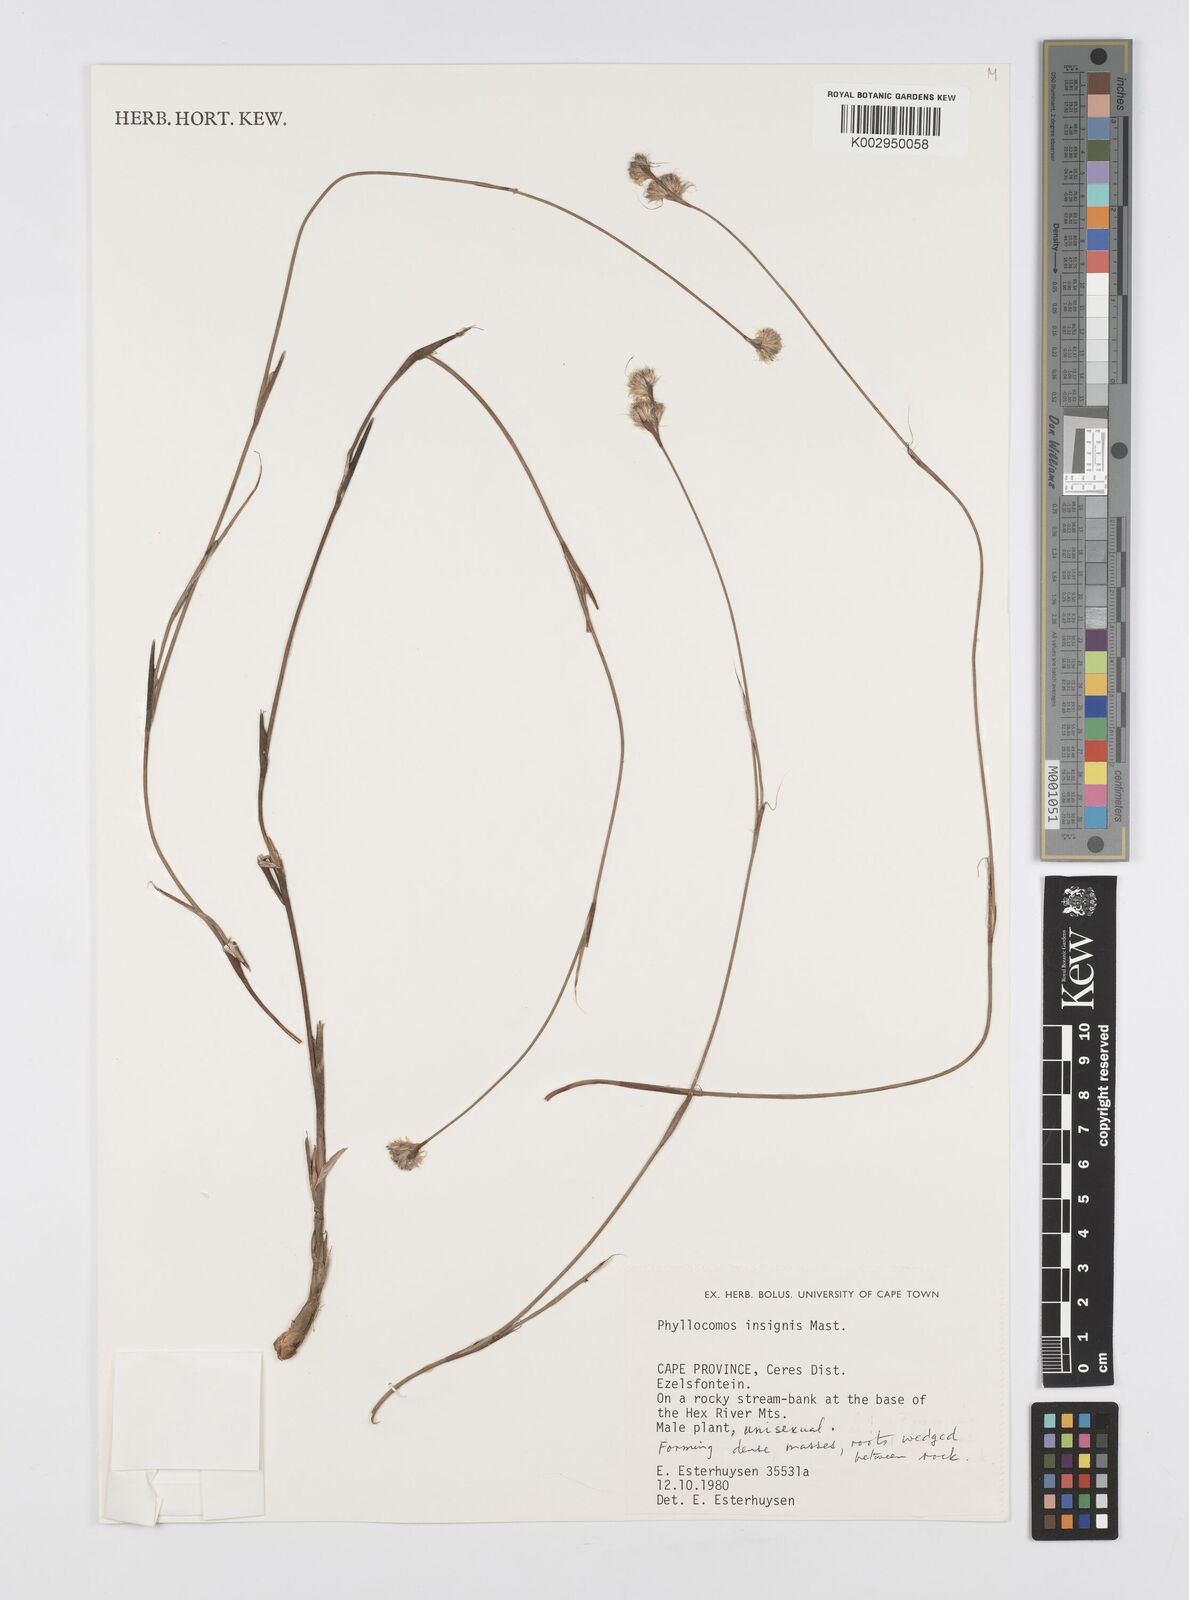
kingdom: Plantae
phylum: Tracheophyta
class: Liliopsida
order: Poales
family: Restionaceae
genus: Anthochortus
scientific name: Anthochortus insignis
